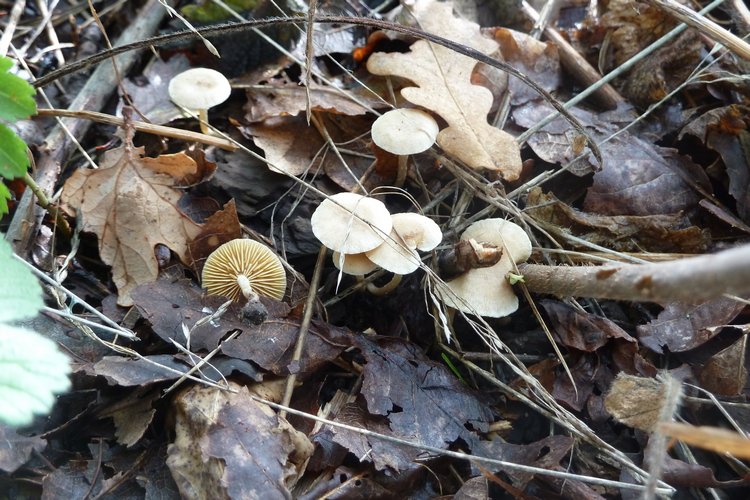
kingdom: Fungi
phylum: Basidiomycota
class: Agaricomycetes
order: Agaricales
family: Tubariaceae
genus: Tubaria
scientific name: Tubaria dispersa
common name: tjørne-fnughat
